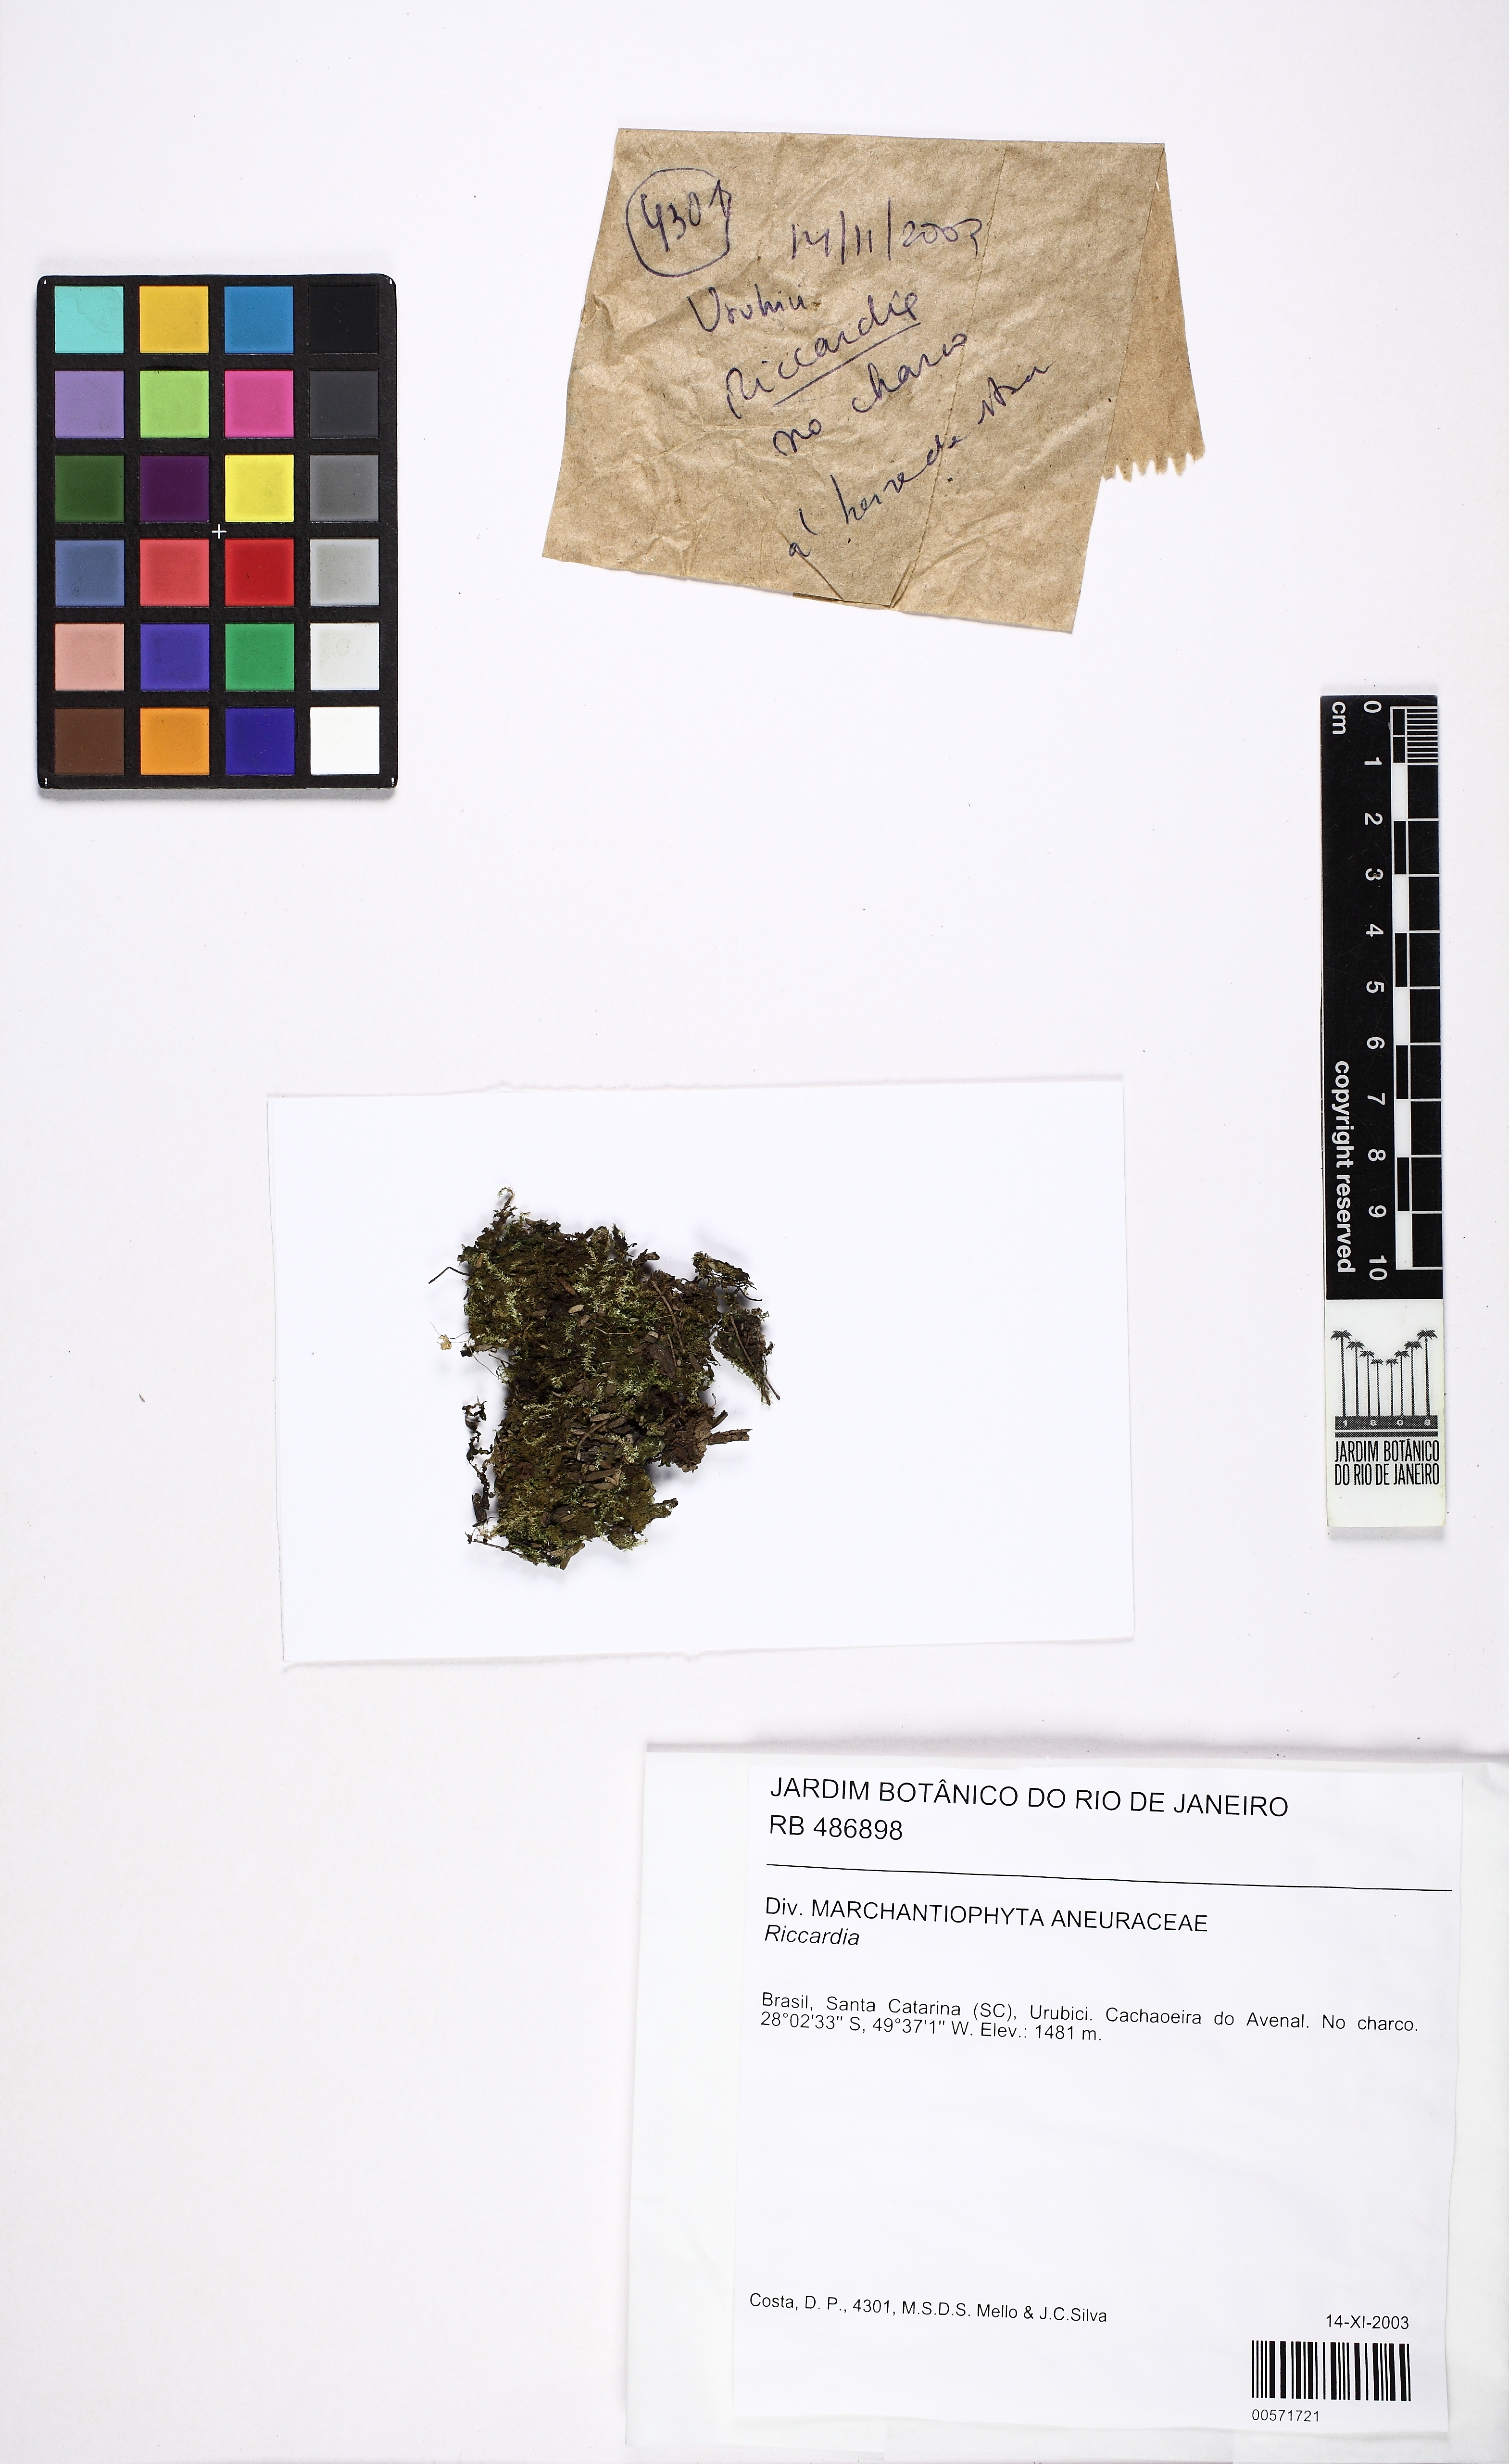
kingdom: Plantae
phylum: Marchantiophyta
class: Jungermanniopsida
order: Metzgeriales
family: Aneuraceae
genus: Riccardia
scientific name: Riccardia
